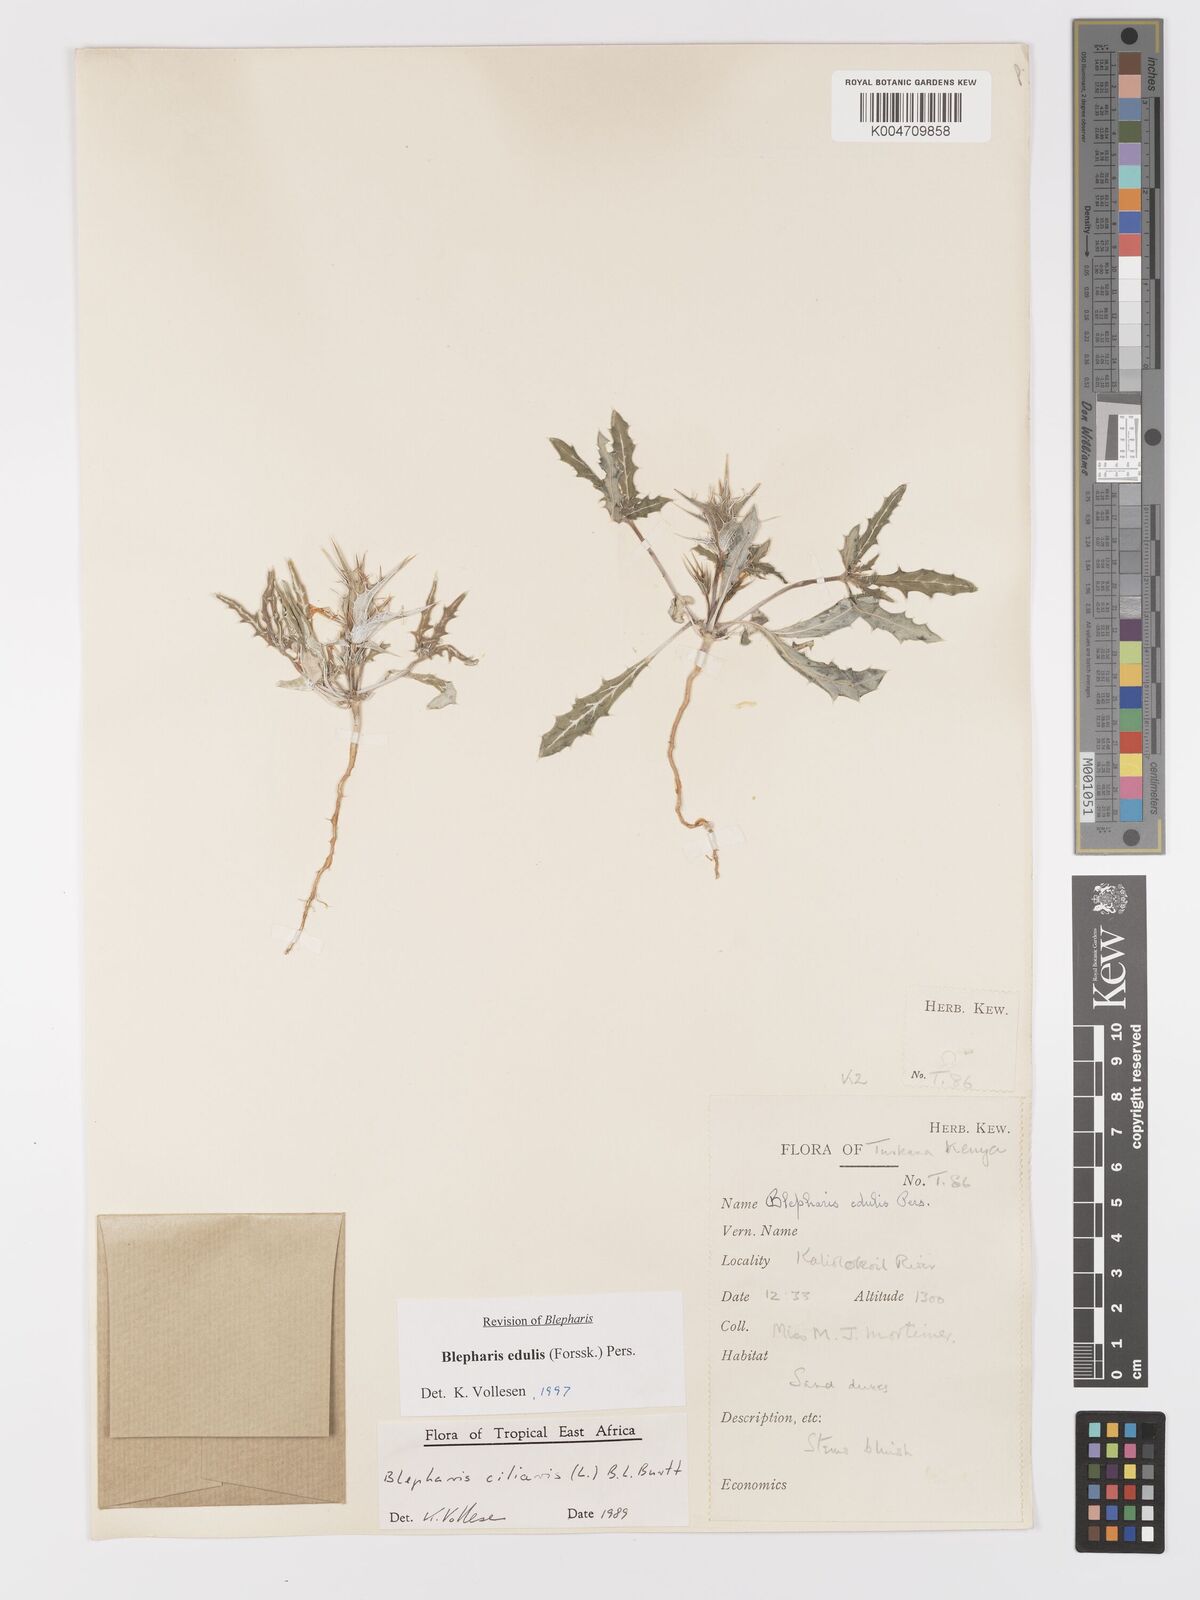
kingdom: Plantae
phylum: Tracheophyta
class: Magnoliopsida
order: Lamiales
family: Acanthaceae
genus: Blepharis
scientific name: Blepharis edulis
